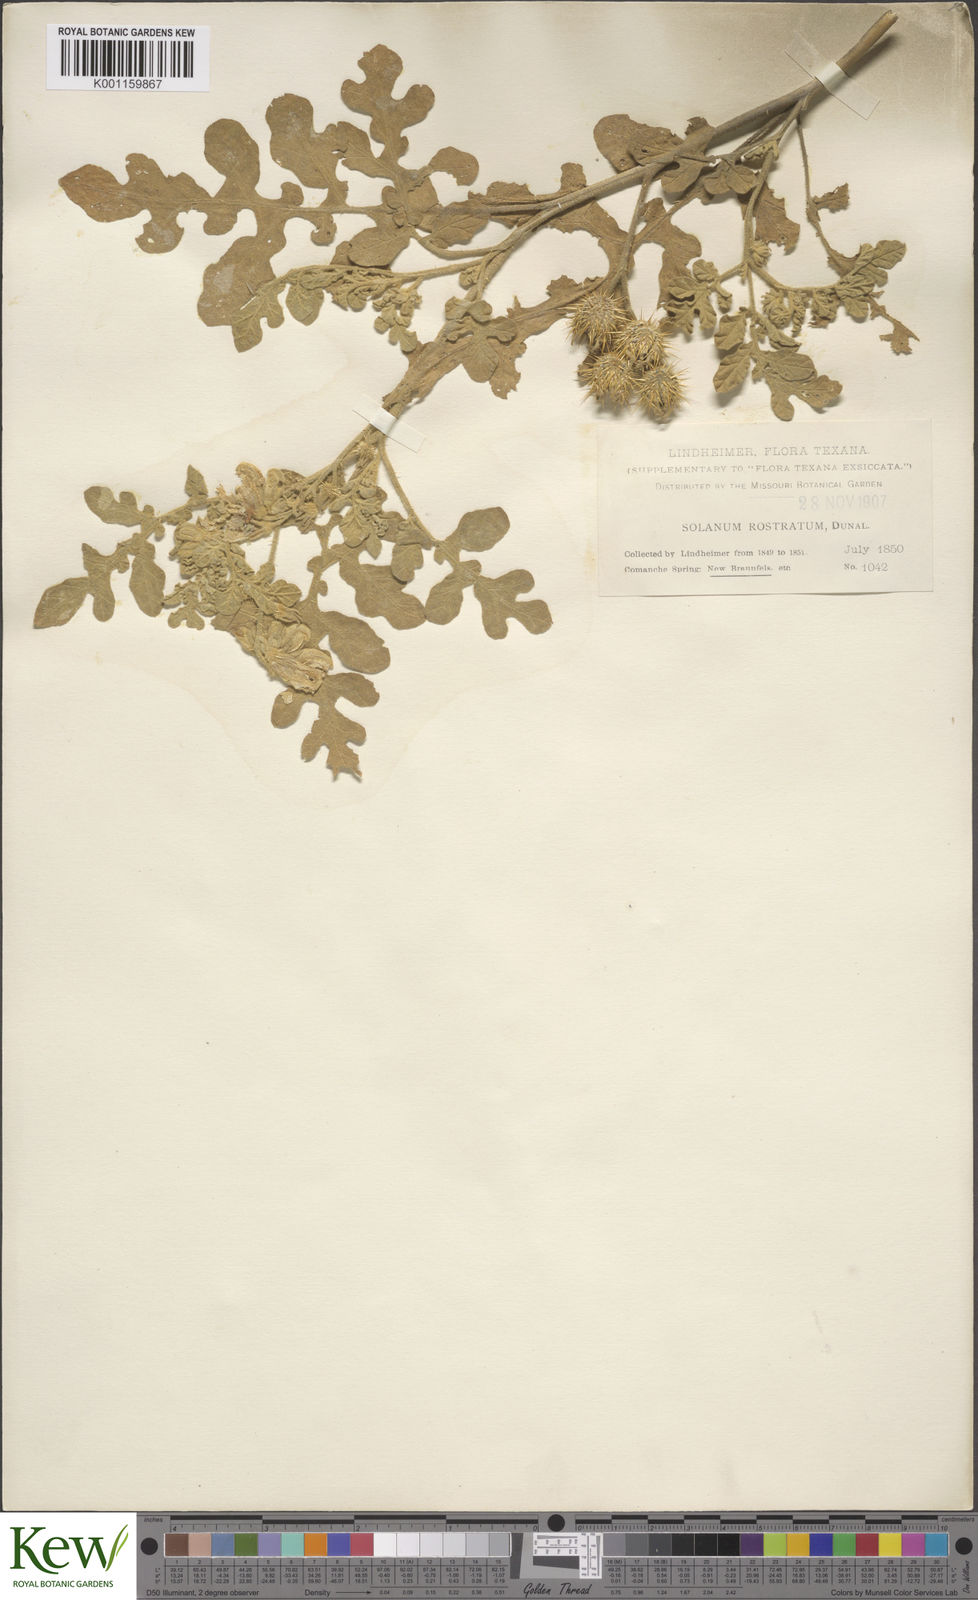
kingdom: Plantae
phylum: Tracheophyta
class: Magnoliopsida
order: Solanales
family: Solanaceae
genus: Solanum
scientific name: Solanum angustifolium
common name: Buffalobur nightshade
